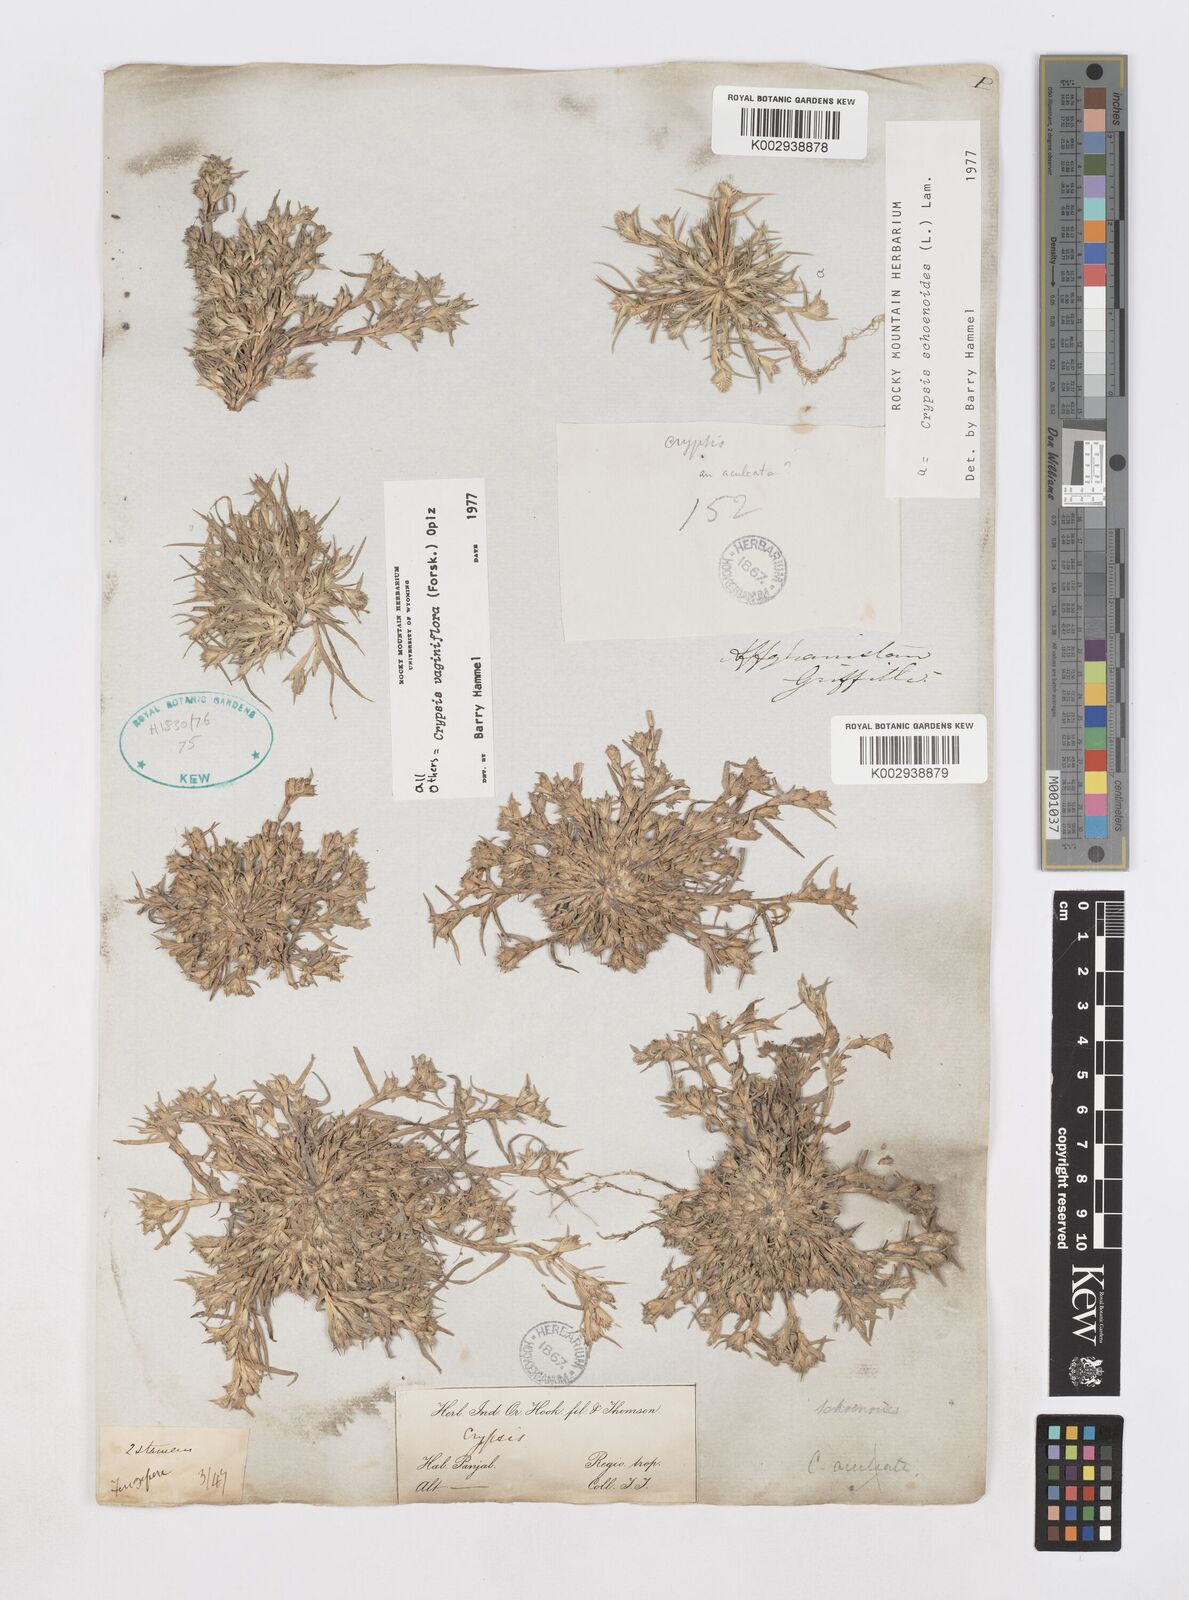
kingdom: Plantae
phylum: Tracheophyta
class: Liliopsida
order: Poales
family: Poaceae
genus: Sporobolus
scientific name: Sporobolus niliacus
